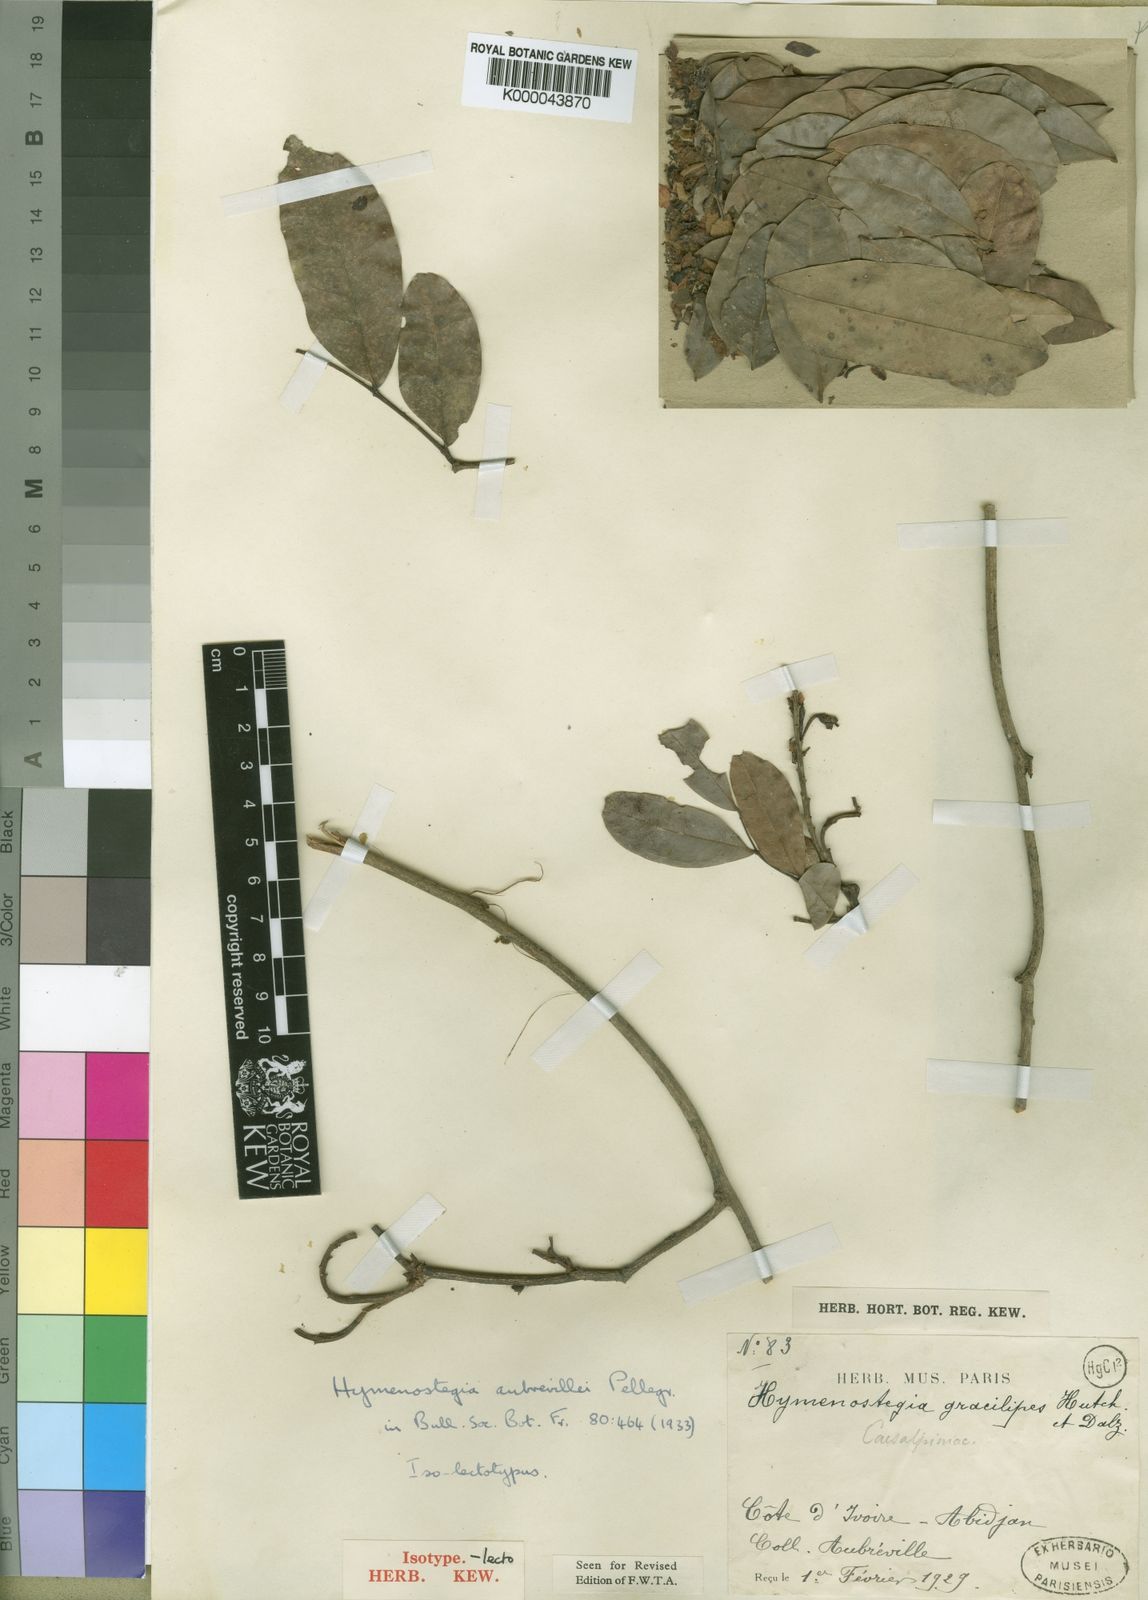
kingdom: Plantae
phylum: Tracheophyta
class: Magnoliopsida
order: Fabales
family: Fabaceae
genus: Hymenostegia
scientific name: Hymenostegia aubrevillei
